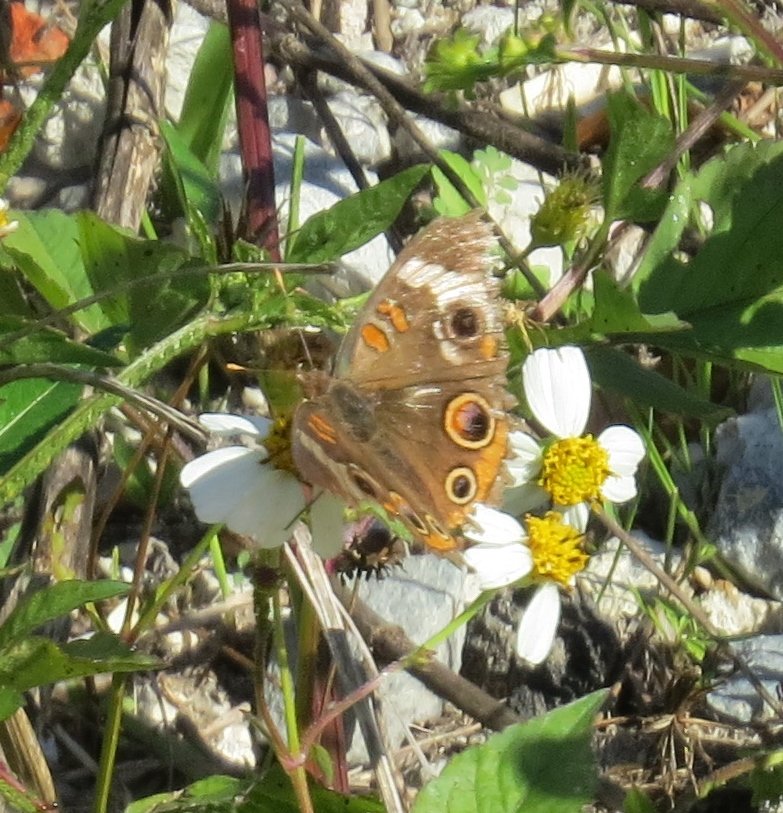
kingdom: Animalia
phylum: Arthropoda
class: Insecta
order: Lepidoptera
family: Nymphalidae
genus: Junonia
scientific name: Junonia coenia
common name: Common Buckeye
